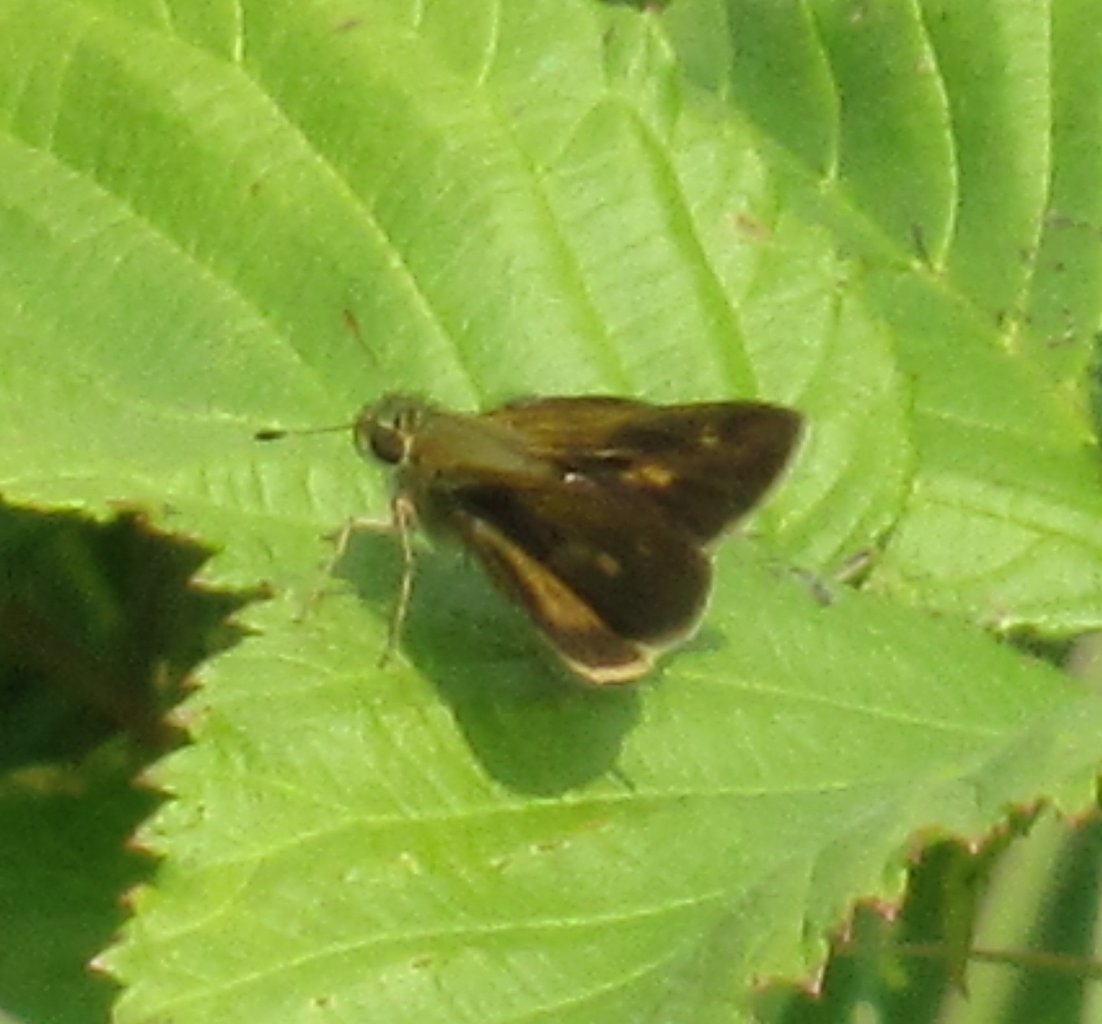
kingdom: Animalia
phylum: Arthropoda
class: Insecta
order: Lepidoptera
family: Hesperiidae
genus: Polites
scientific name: Polites egeremet
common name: Northern Broken-Dash
